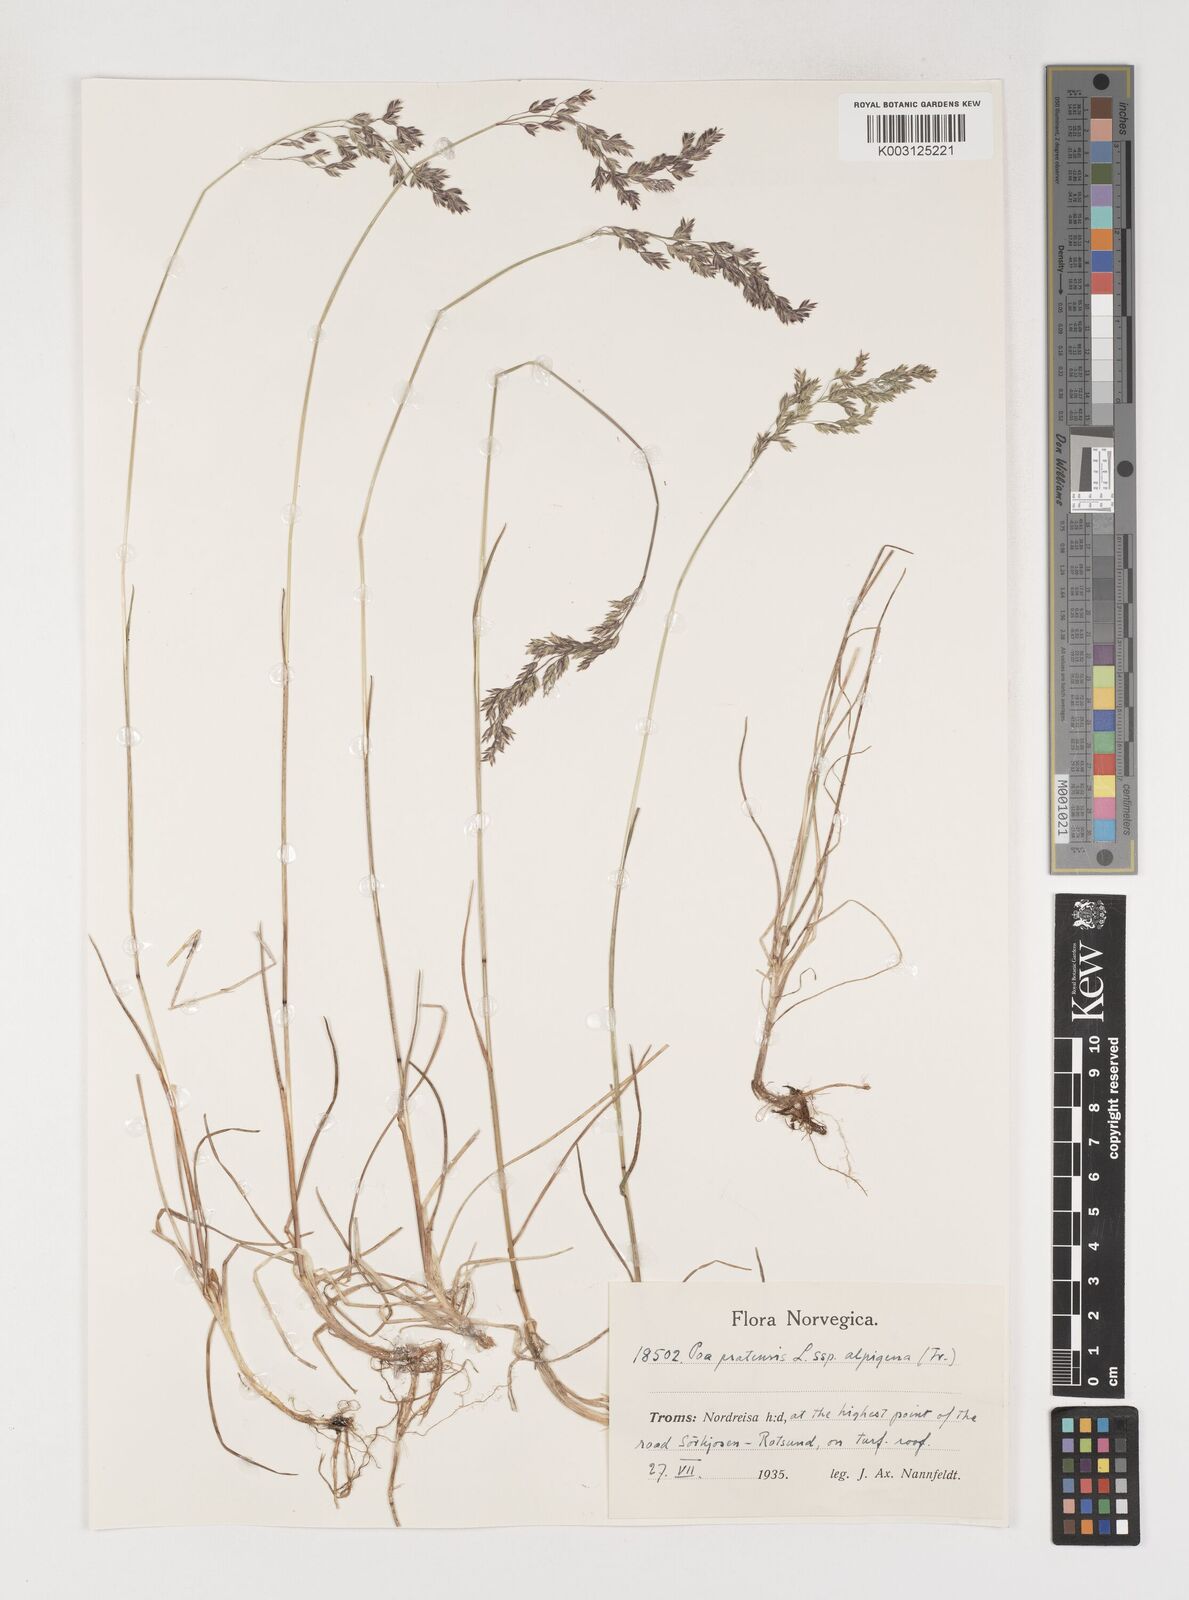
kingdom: Plantae
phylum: Tracheophyta
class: Liliopsida
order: Poales
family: Poaceae
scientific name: Poaceae
